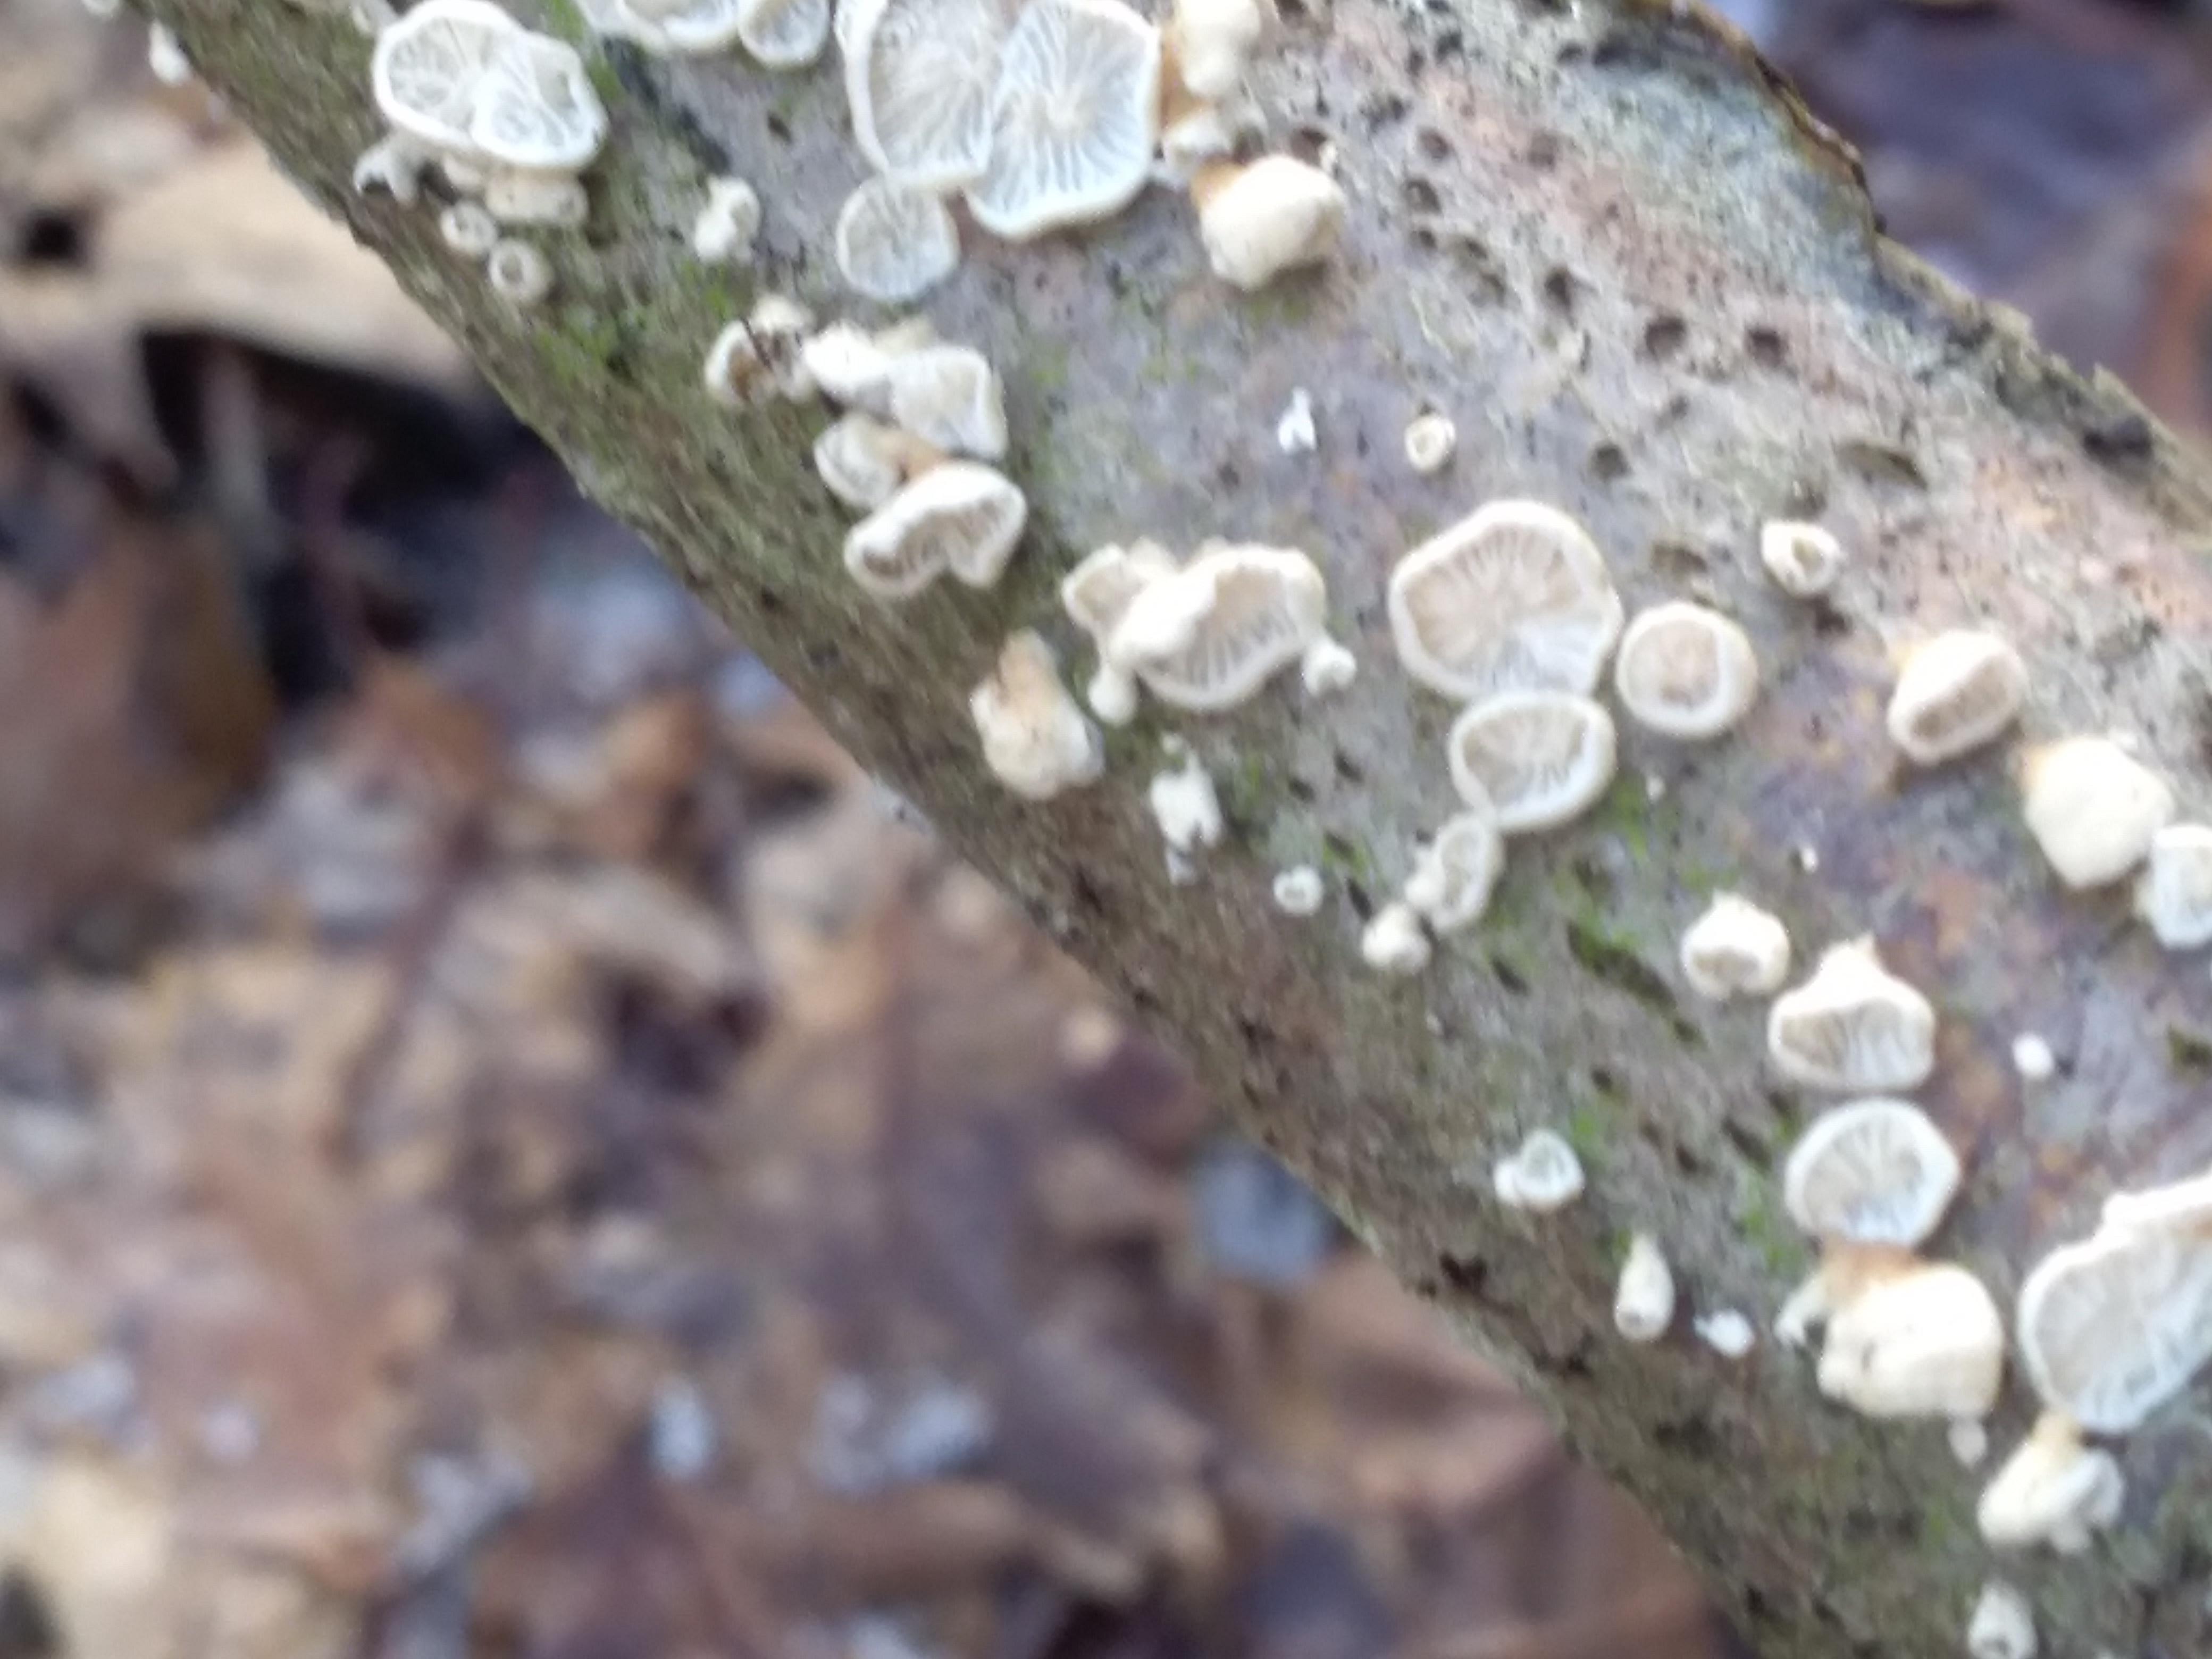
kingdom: Fungi
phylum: Basidiomycota
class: Agaricomycetes
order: Amylocorticiales
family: Amylocorticiaceae
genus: Plicaturopsis
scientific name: Plicaturopsis crispa
